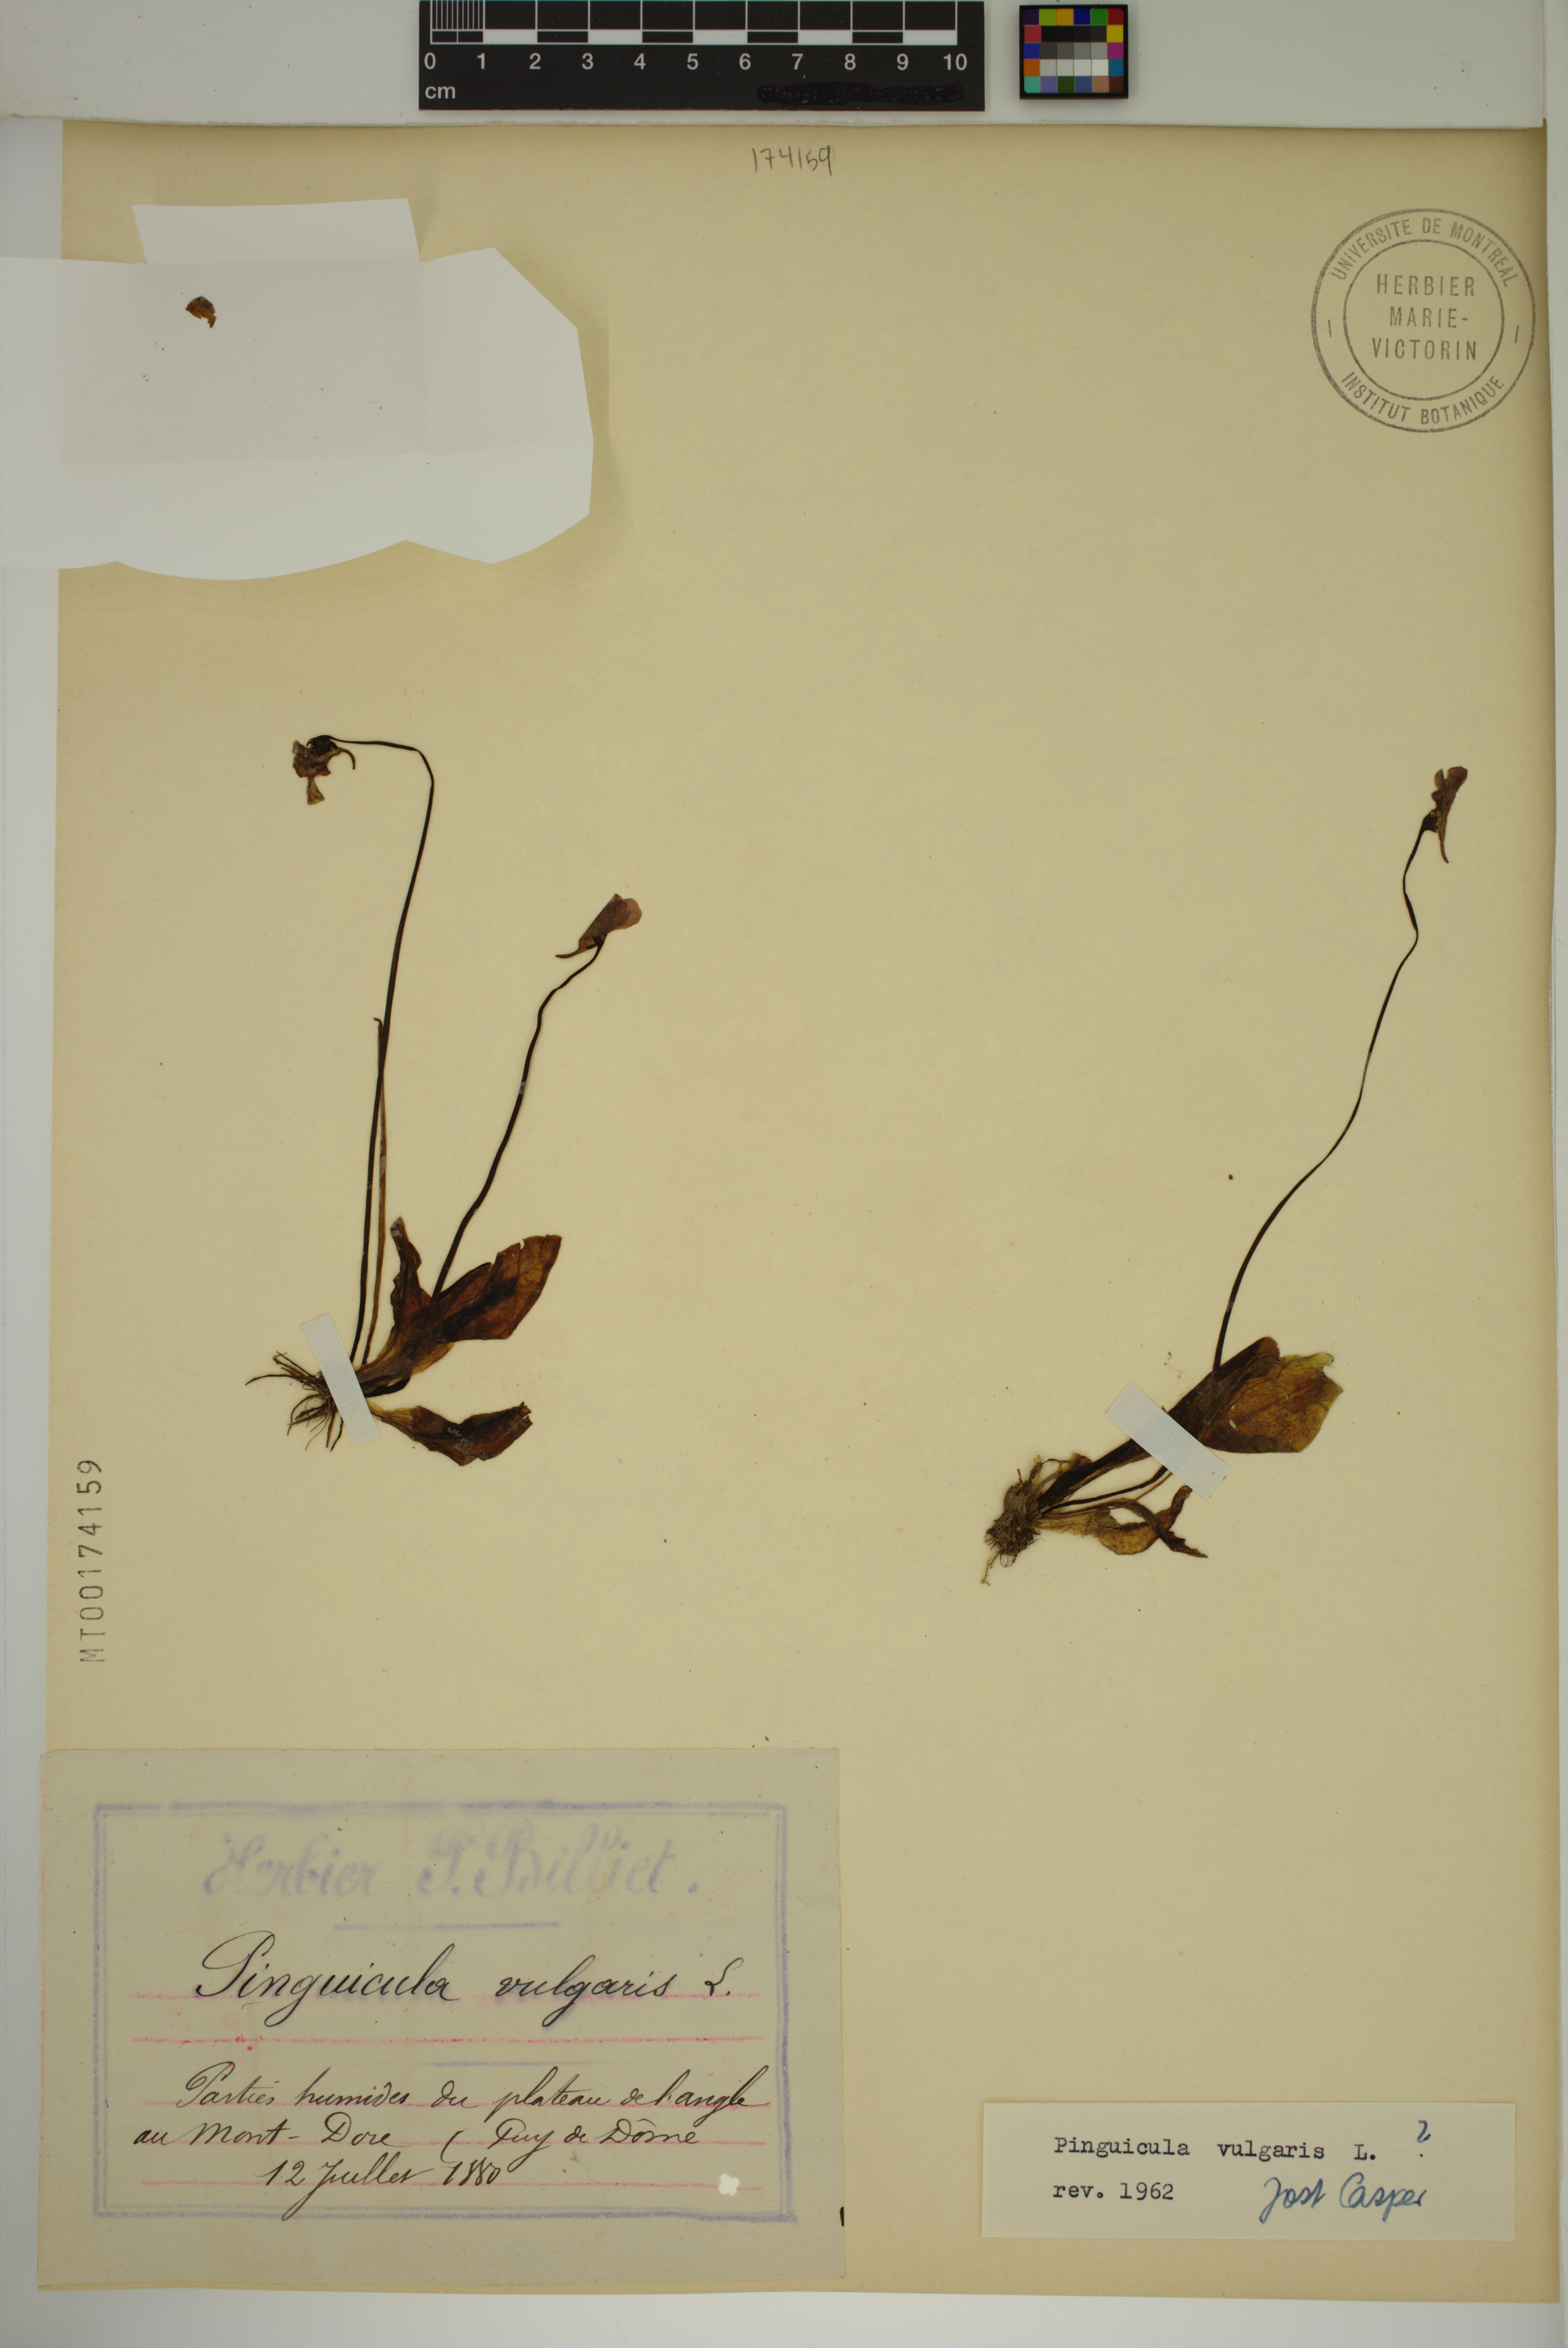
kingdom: Plantae
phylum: Tracheophyta
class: Magnoliopsida
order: Lamiales
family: Lentibulariaceae
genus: Pinguicula
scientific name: Pinguicula vulgaris
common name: Common butterwort
